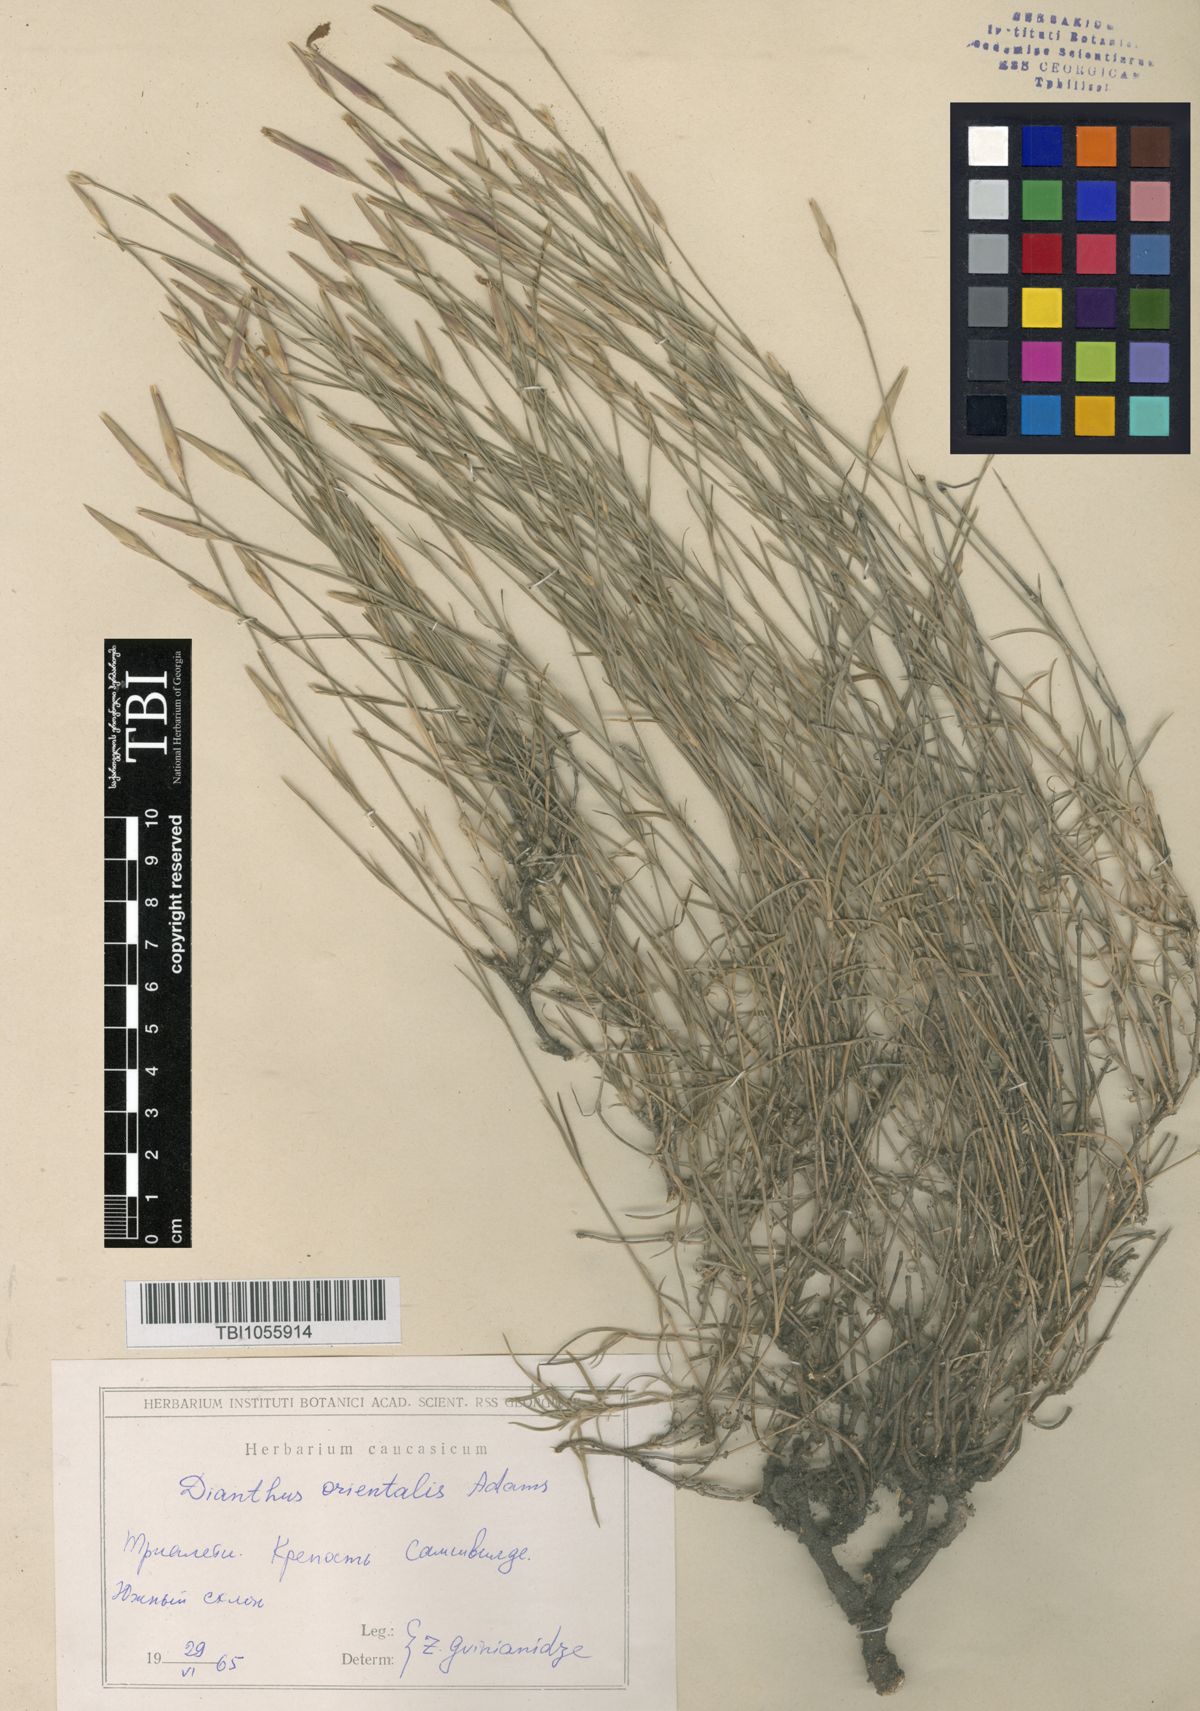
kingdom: Plantae
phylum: Tracheophyta
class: Magnoliopsida
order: Caryophyllales
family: Caryophyllaceae
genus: Dianthus
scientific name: Dianthus orientalis
